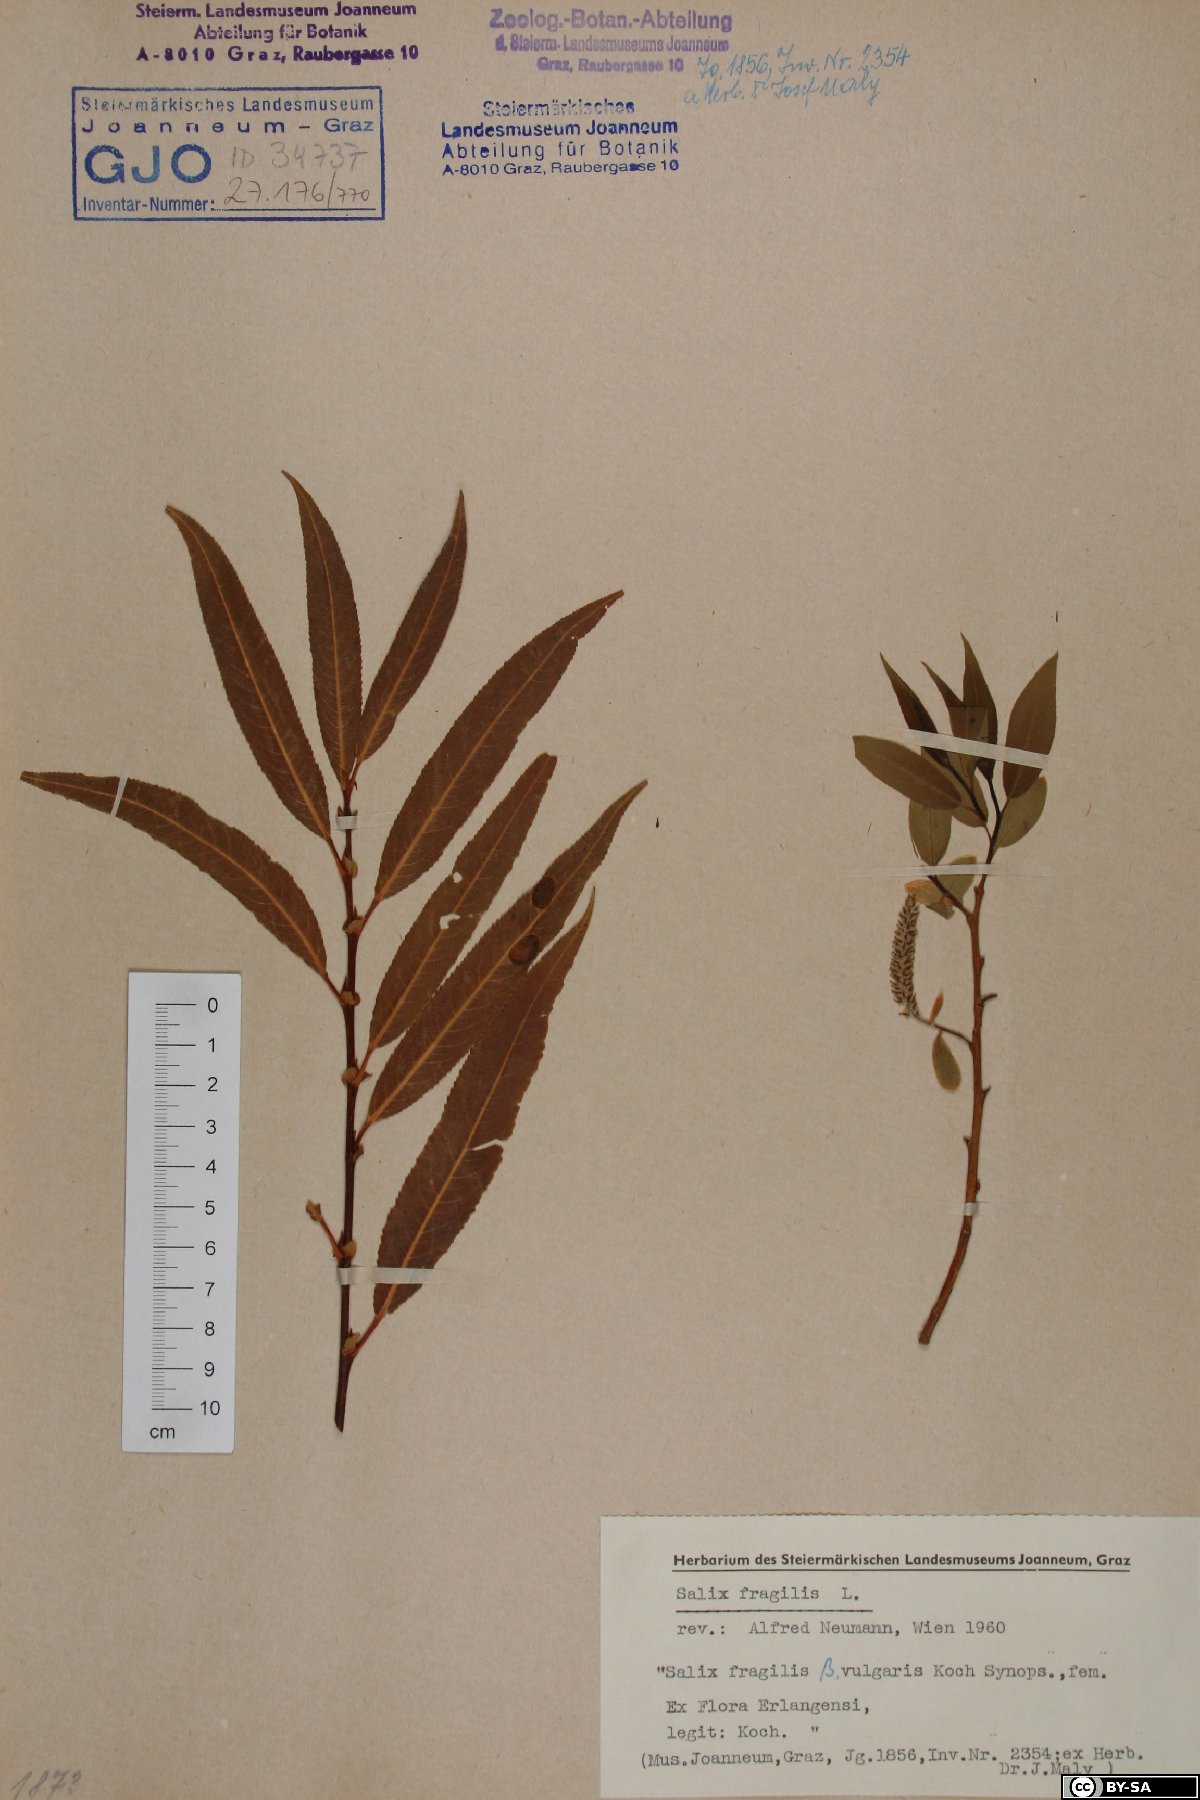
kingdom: Plantae
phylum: Tracheophyta
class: Magnoliopsida
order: Malpighiales
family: Salicaceae
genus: Salix
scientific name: Salix fragilis
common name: Crack willow
